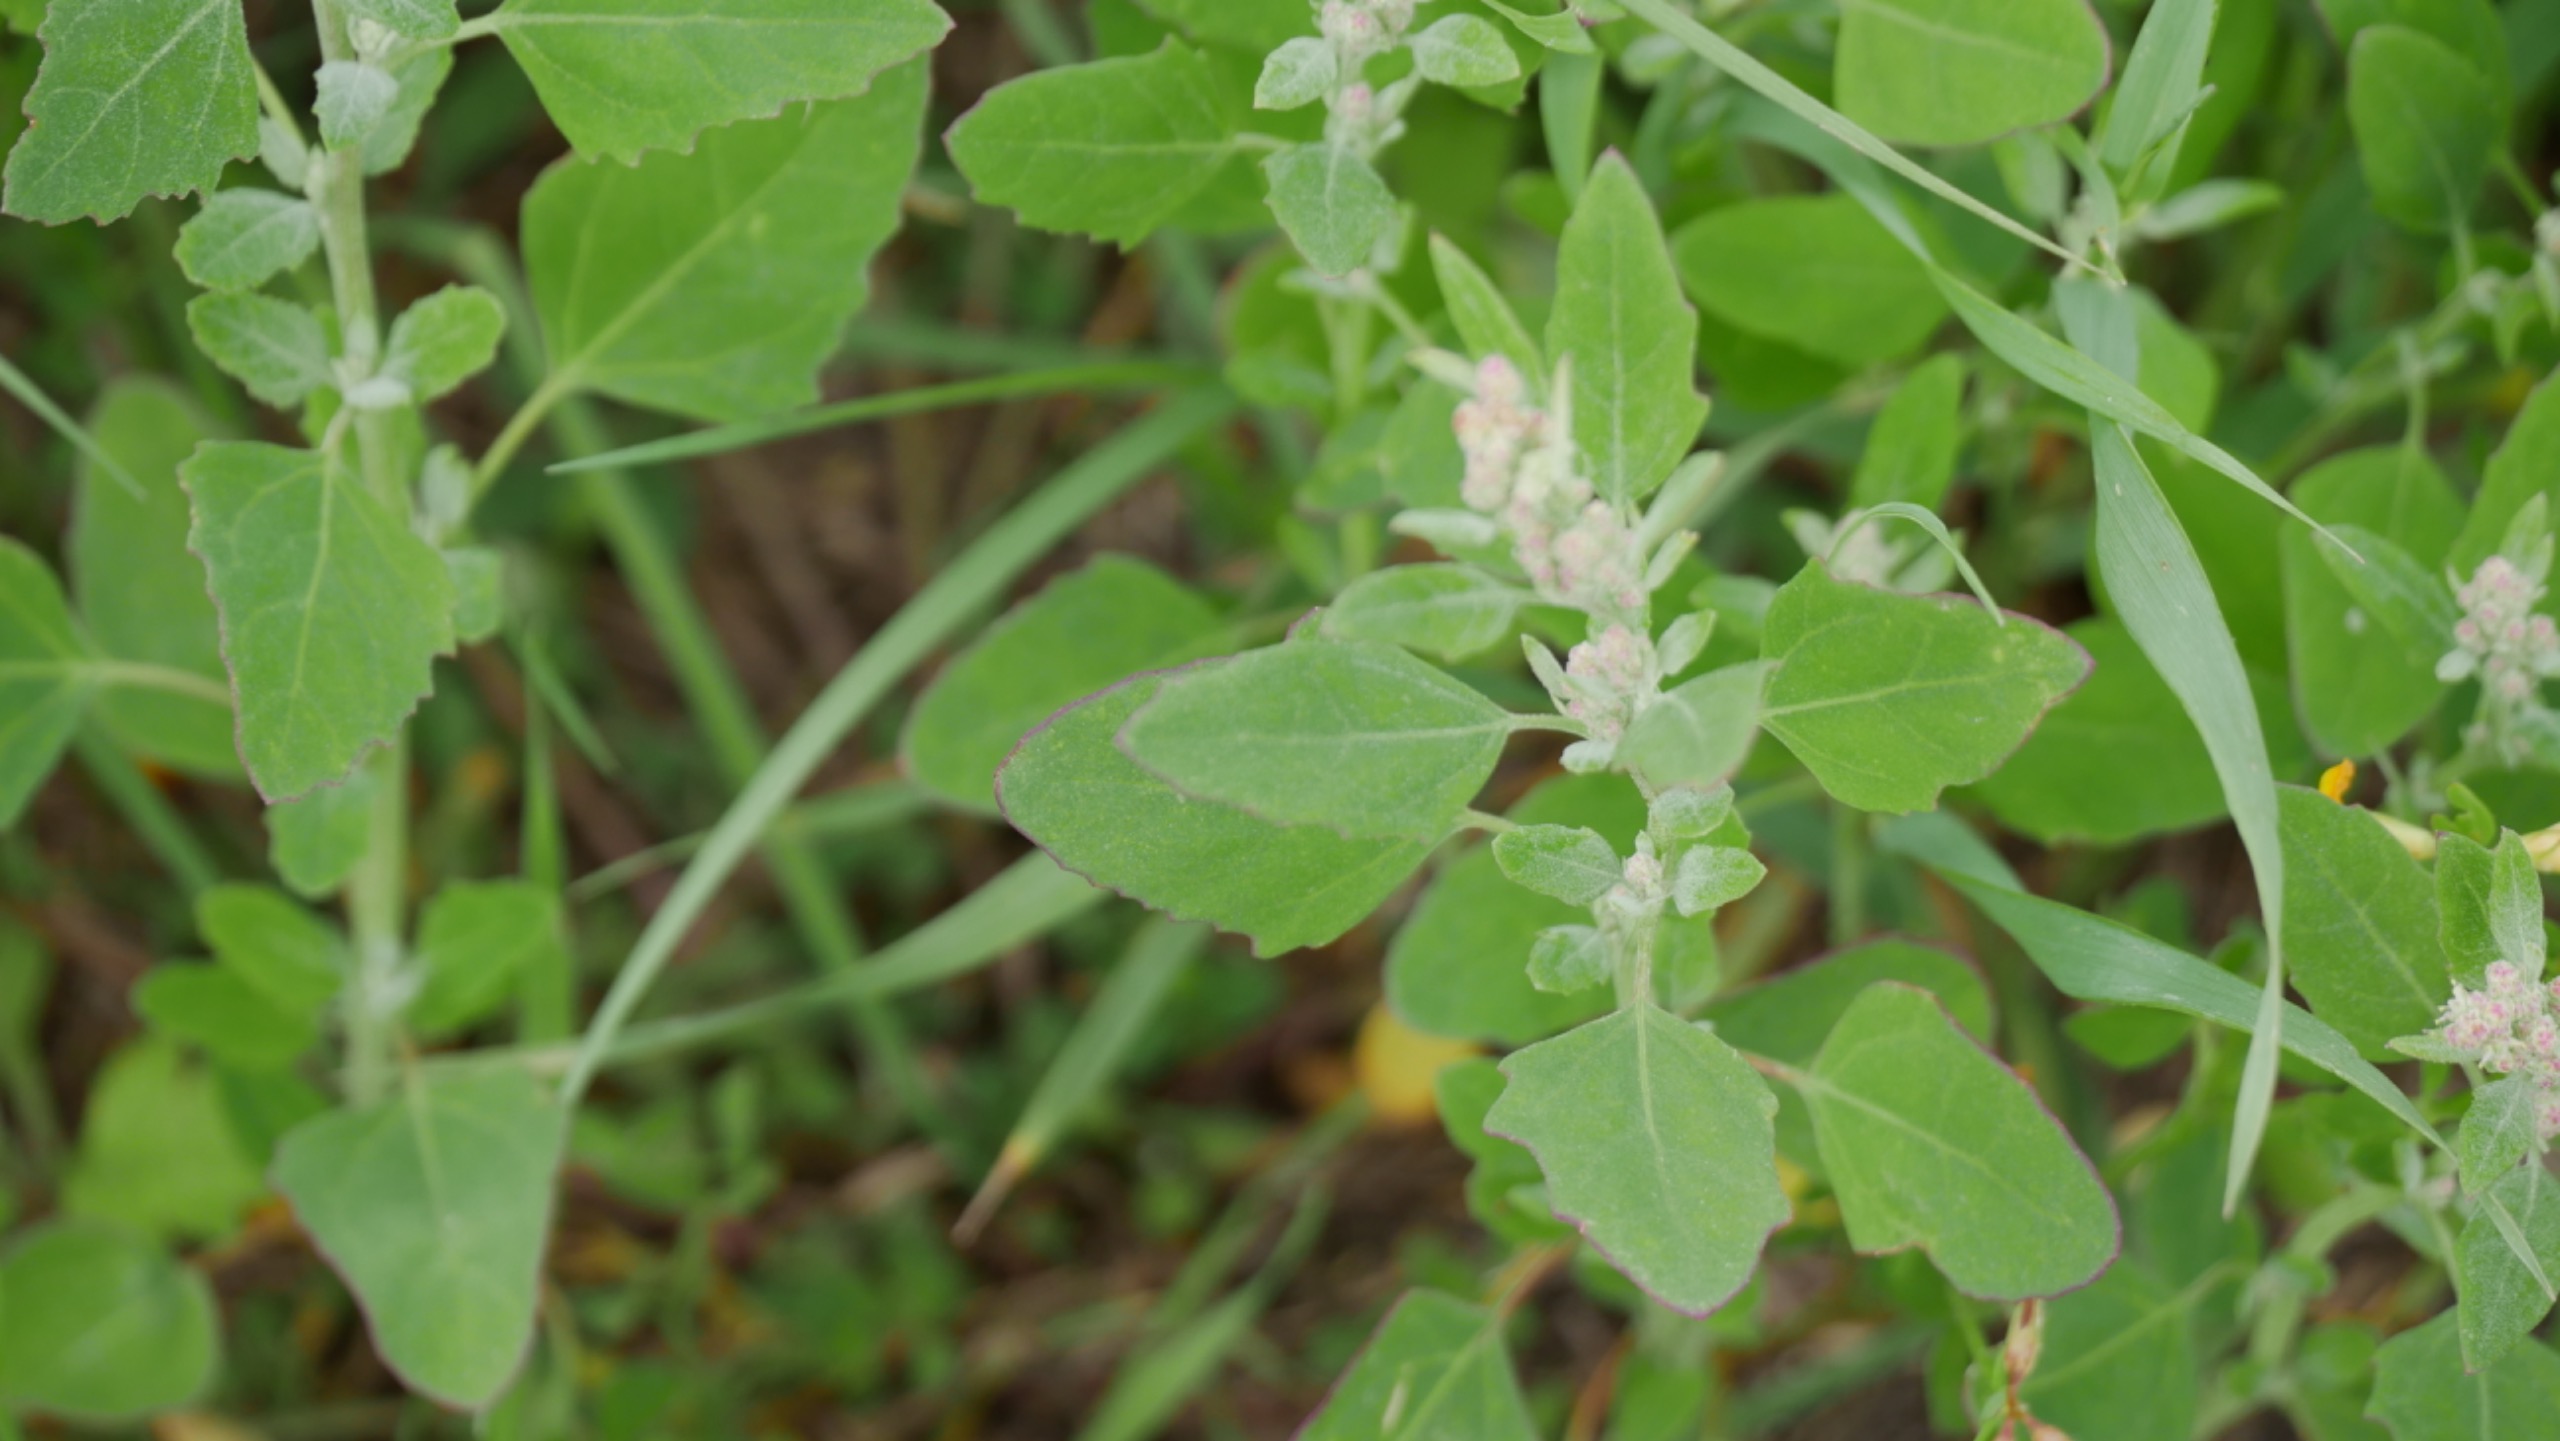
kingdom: Plantae
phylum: Tracheophyta
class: Magnoliopsida
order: Caryophyllales
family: Amaranthaceae
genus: Chenopodium
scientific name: Chenopodium album
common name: Hvidmelet gåsefod
